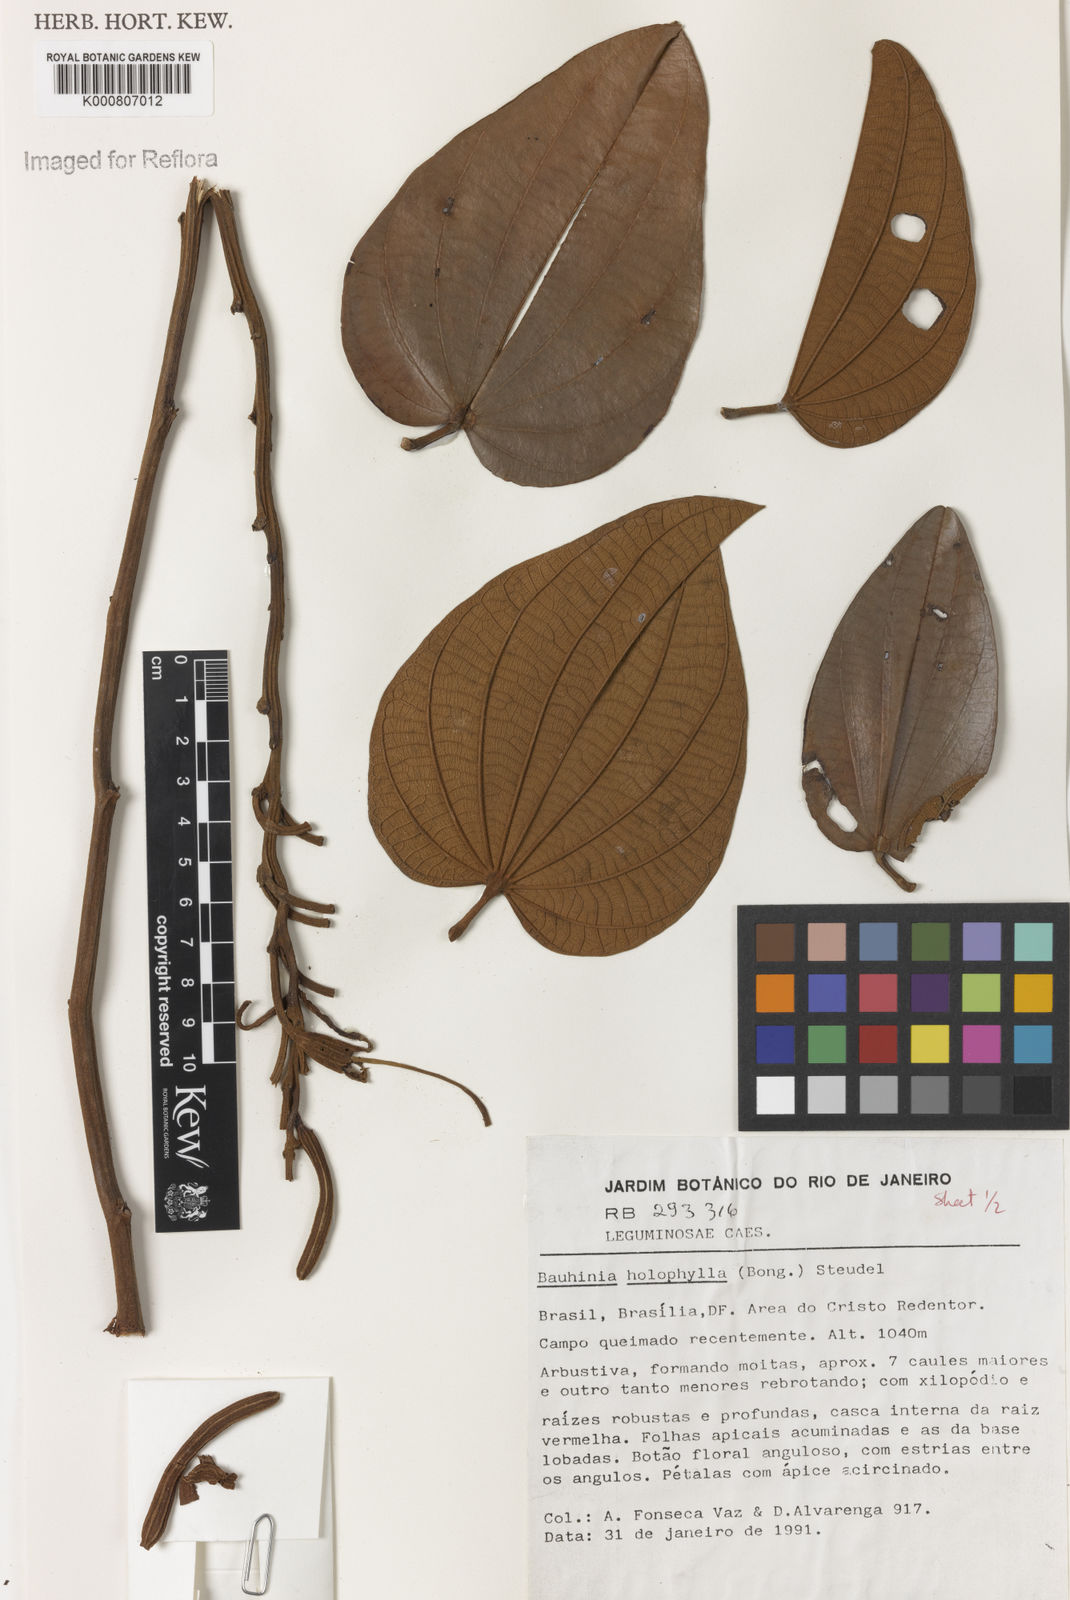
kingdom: Plantae
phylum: Tracheophyta
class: Magnoliopsida
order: Fabales
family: Fabaceae
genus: Bauhinia
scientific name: Bauhinia holophylla
